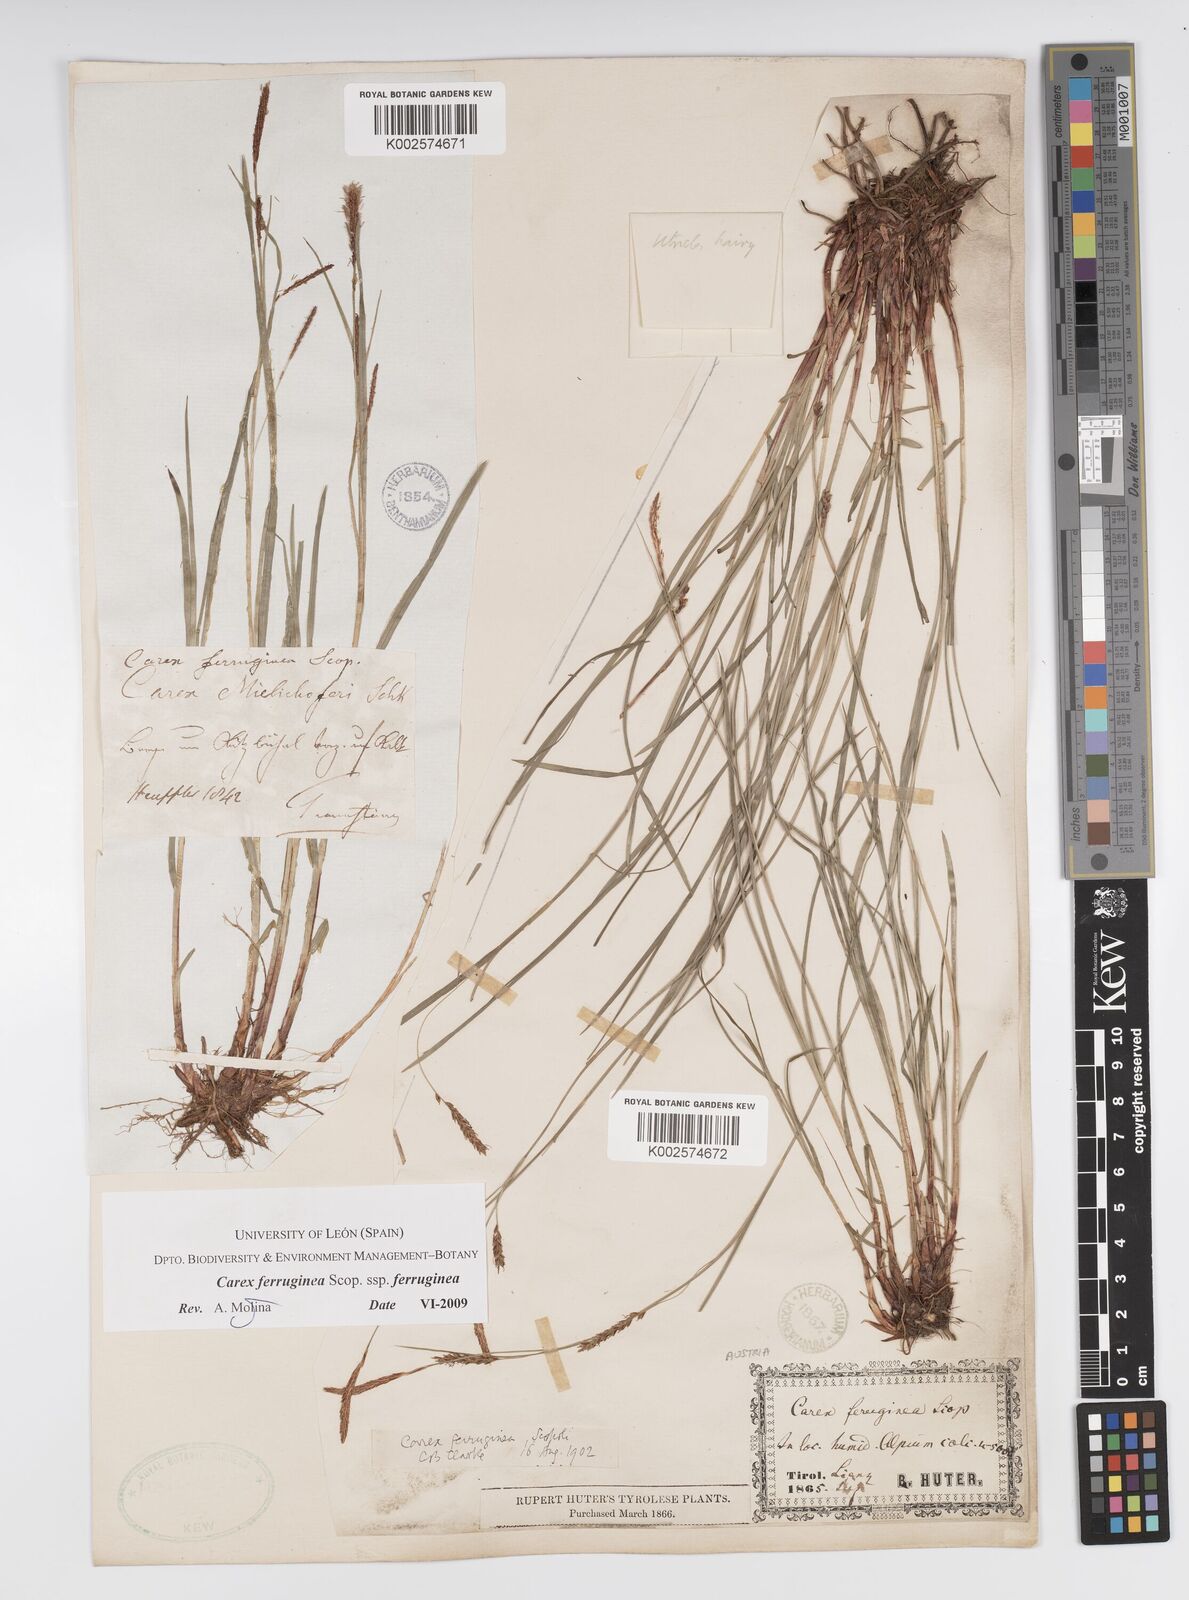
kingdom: Plantae
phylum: Tracheophyta
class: Liliopsida
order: Poales
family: Cyperaceae
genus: Carex
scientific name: Carex ferruginea
